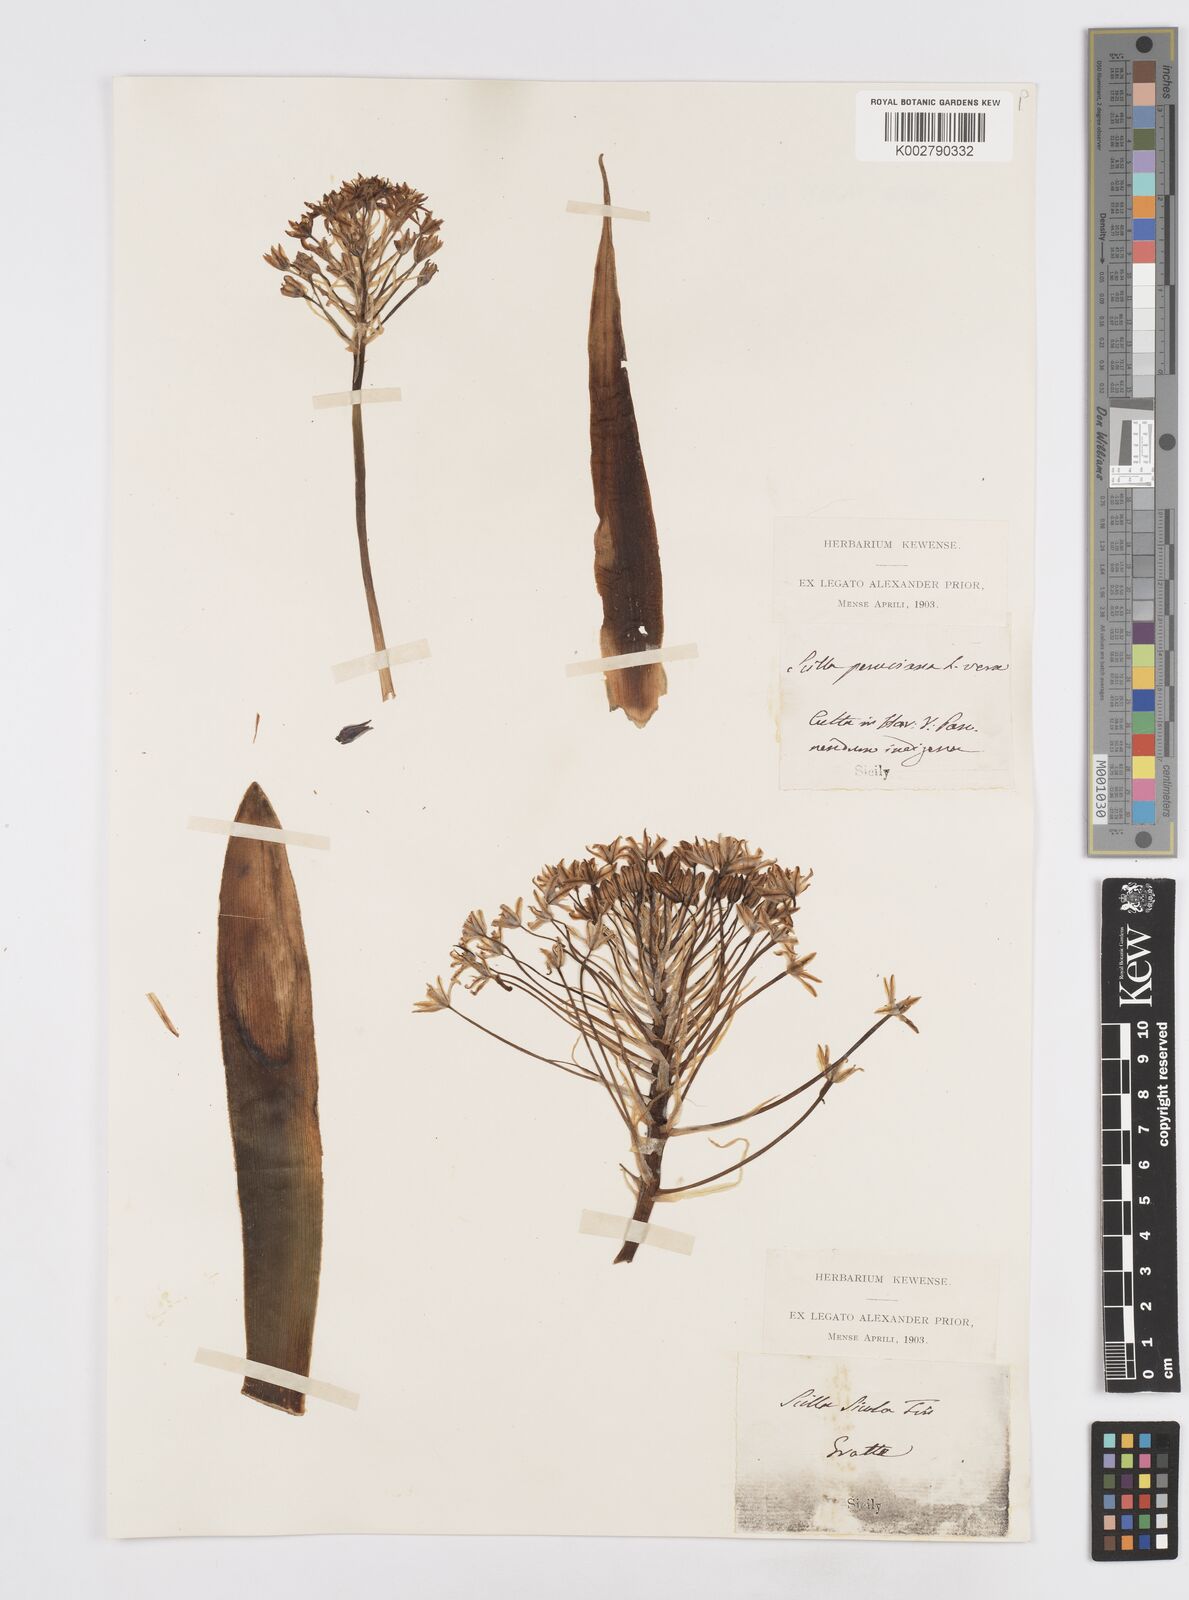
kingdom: Plantae
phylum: Tracheophyta
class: Liliopsida
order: Asparagales
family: Asparagaceae
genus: Scilla
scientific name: Scilla peruviana
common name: Portuguese squill
